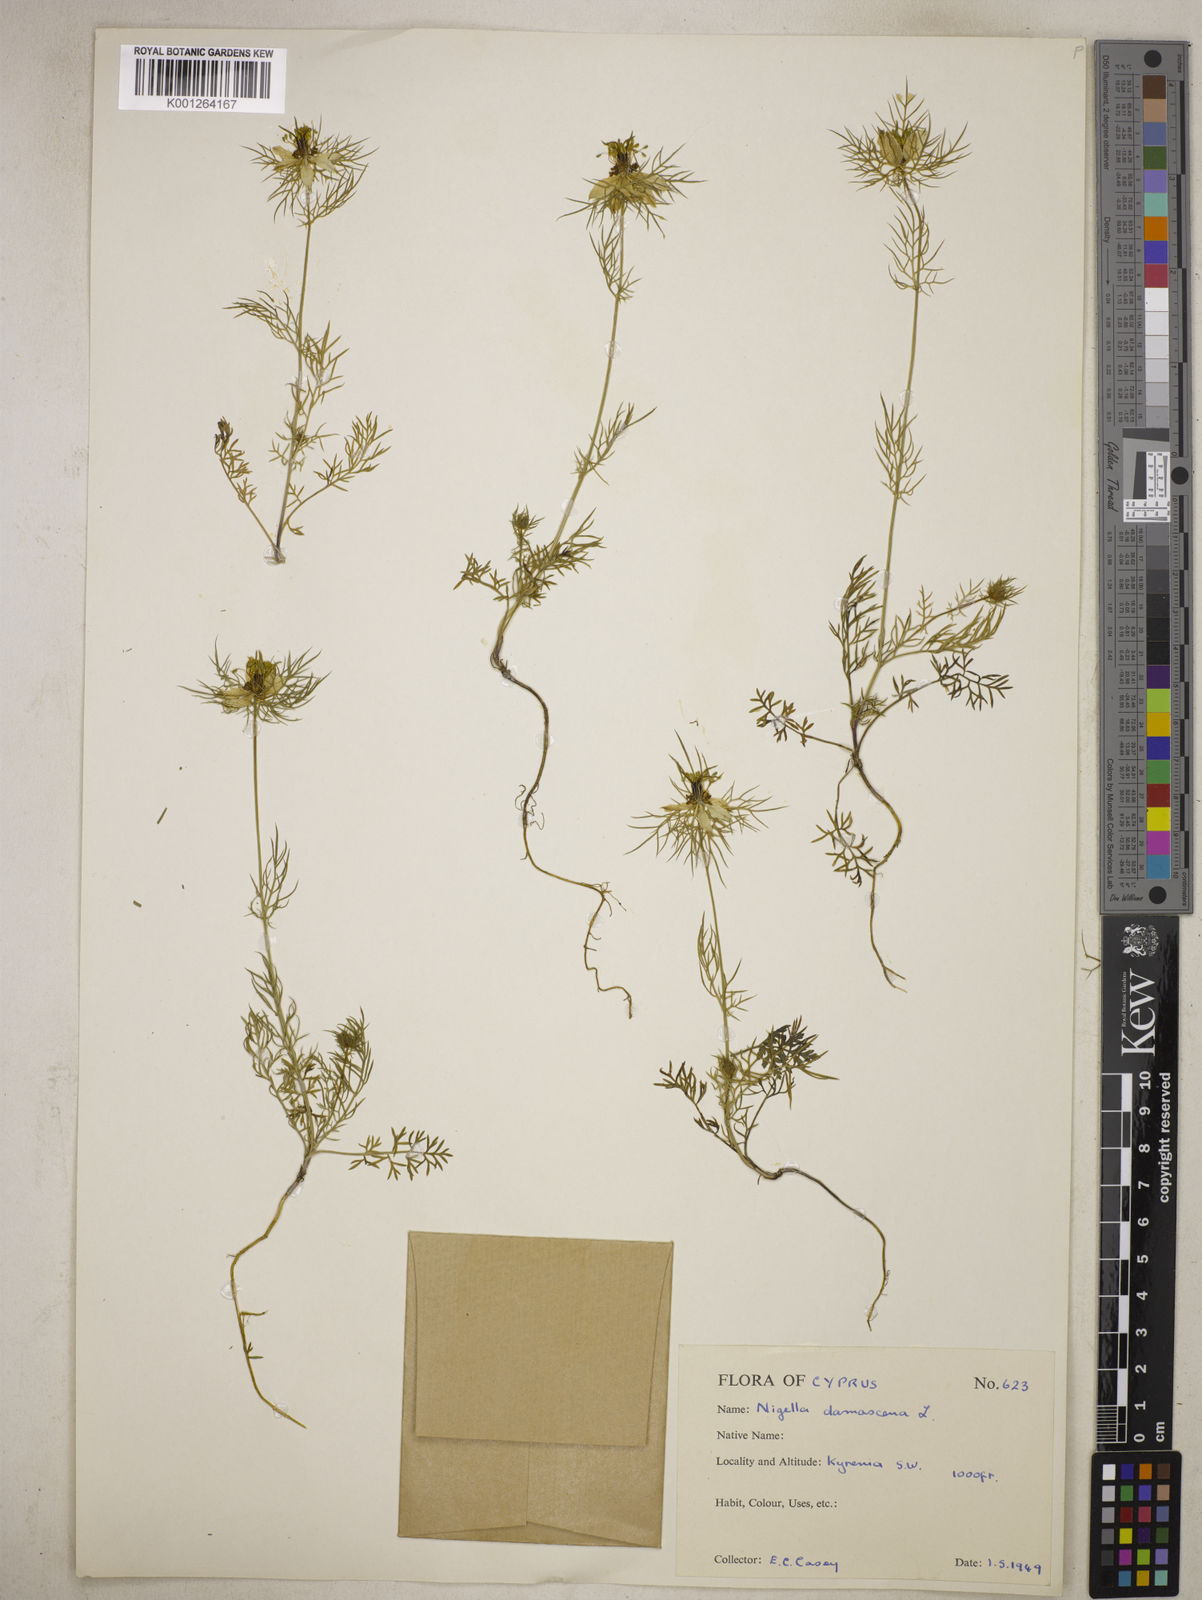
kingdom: Plantae
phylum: Tracheophyta
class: Magnoliopsida
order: Ranunculales
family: Ranunculaceae
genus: Nigella
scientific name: Nigella damascena
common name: Love-in-a-mist
